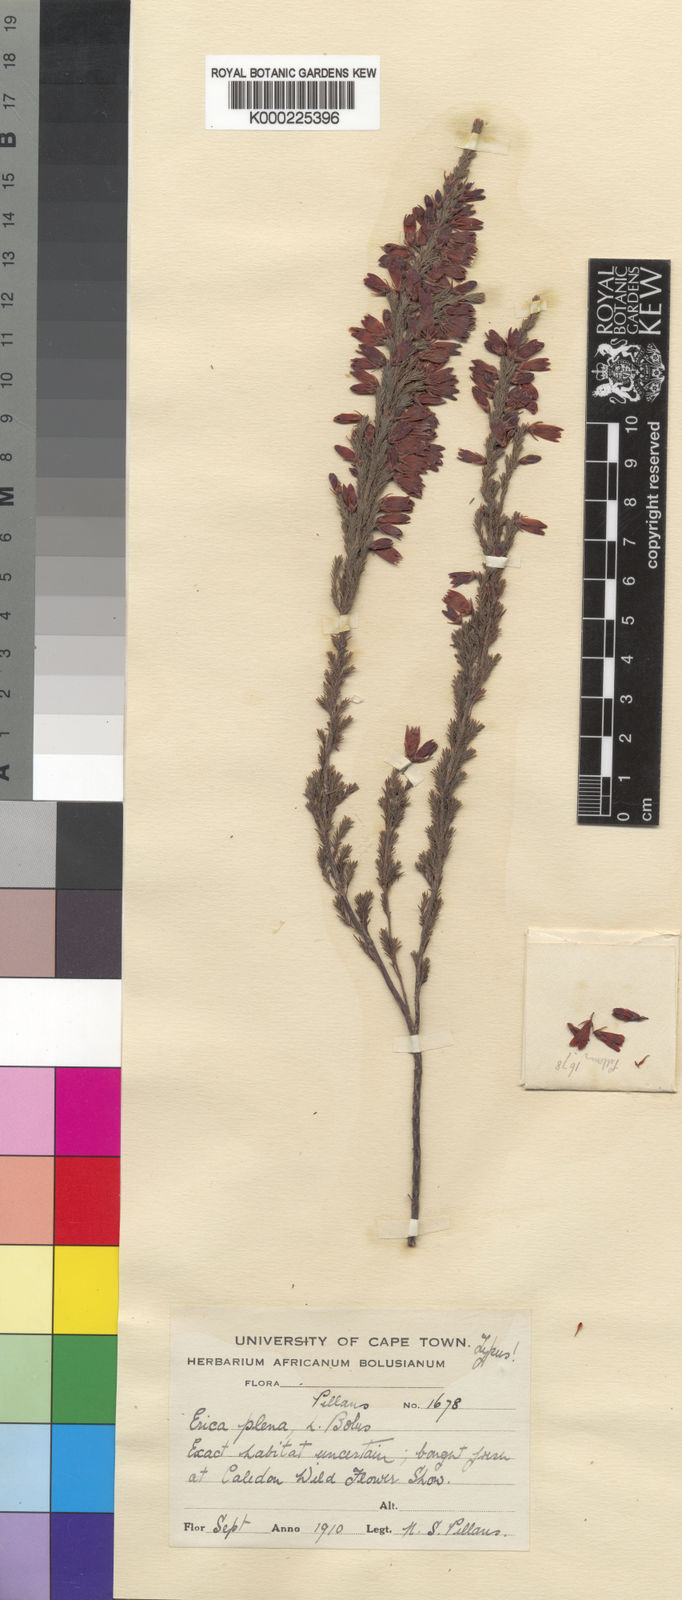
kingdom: Plantae
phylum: Tracheophyta
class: Magnoliopsida
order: Ericales
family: Ericaceae
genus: Erica
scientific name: Erica plena
